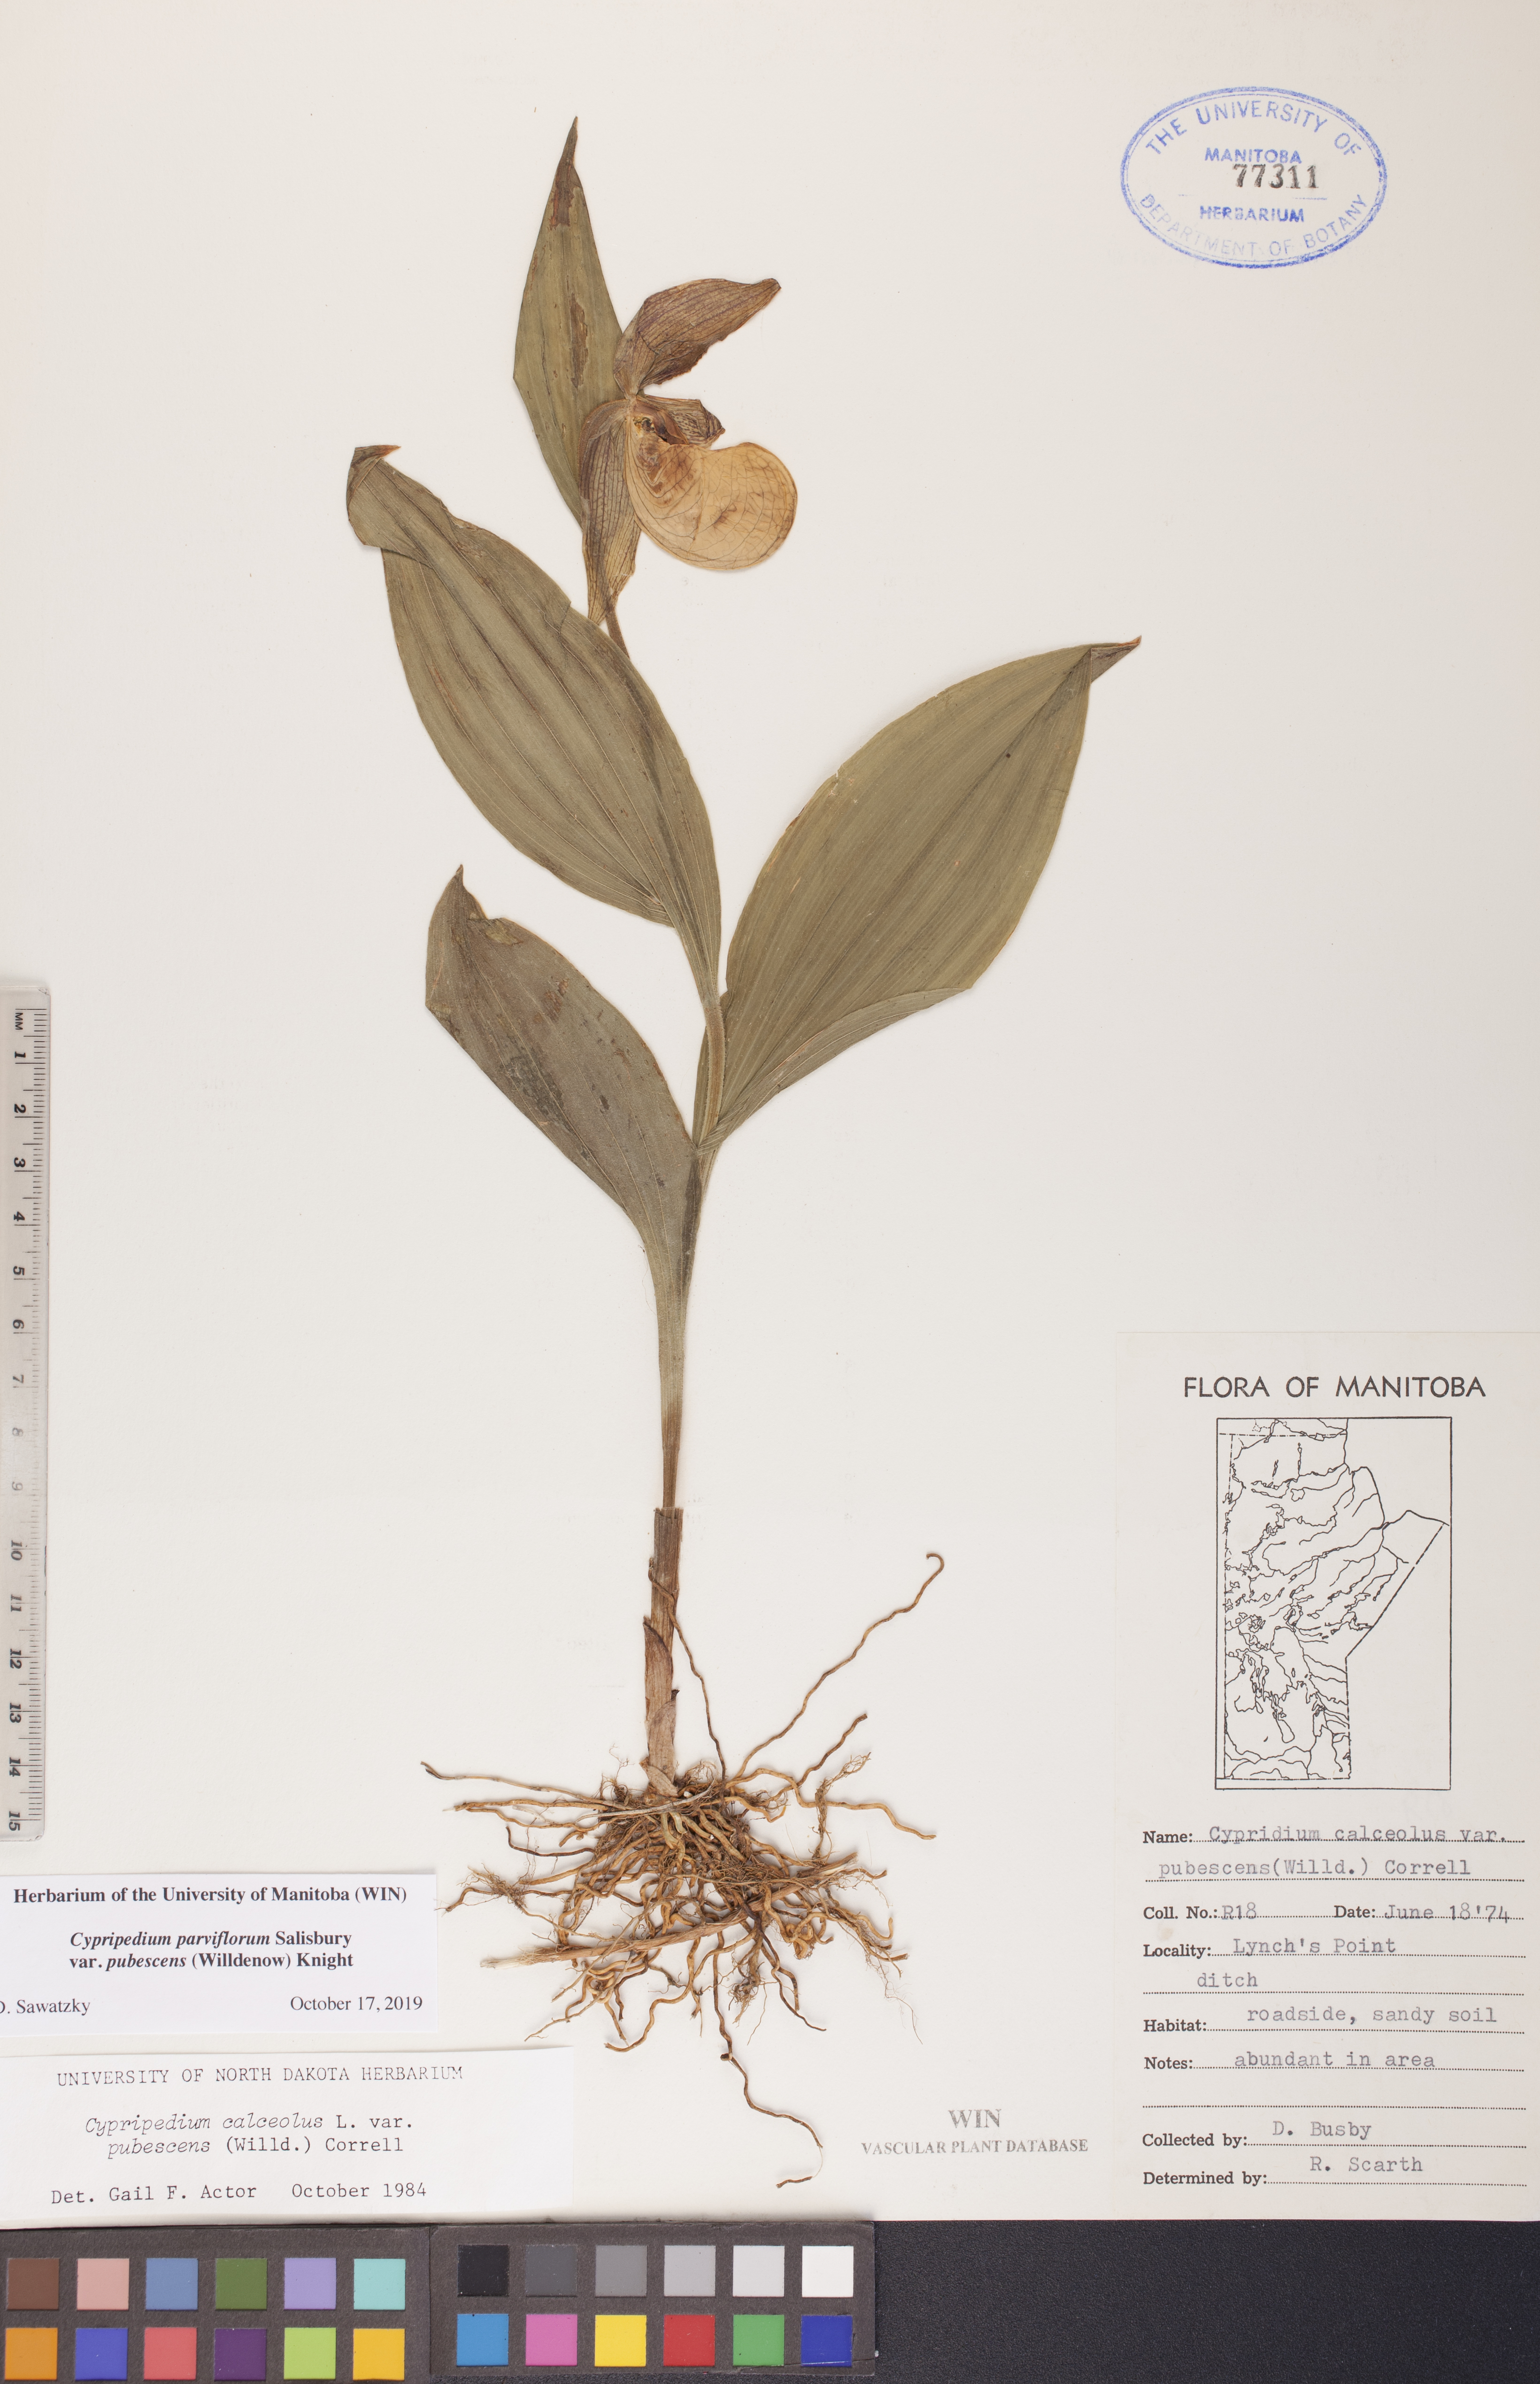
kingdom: Plantae
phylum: Tracheophyta
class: Liliopsida
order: Asparagales
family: Orchidaceae
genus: Cypripedium
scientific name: Cypripedium parviflorum
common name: American yellow lady's-slipper
